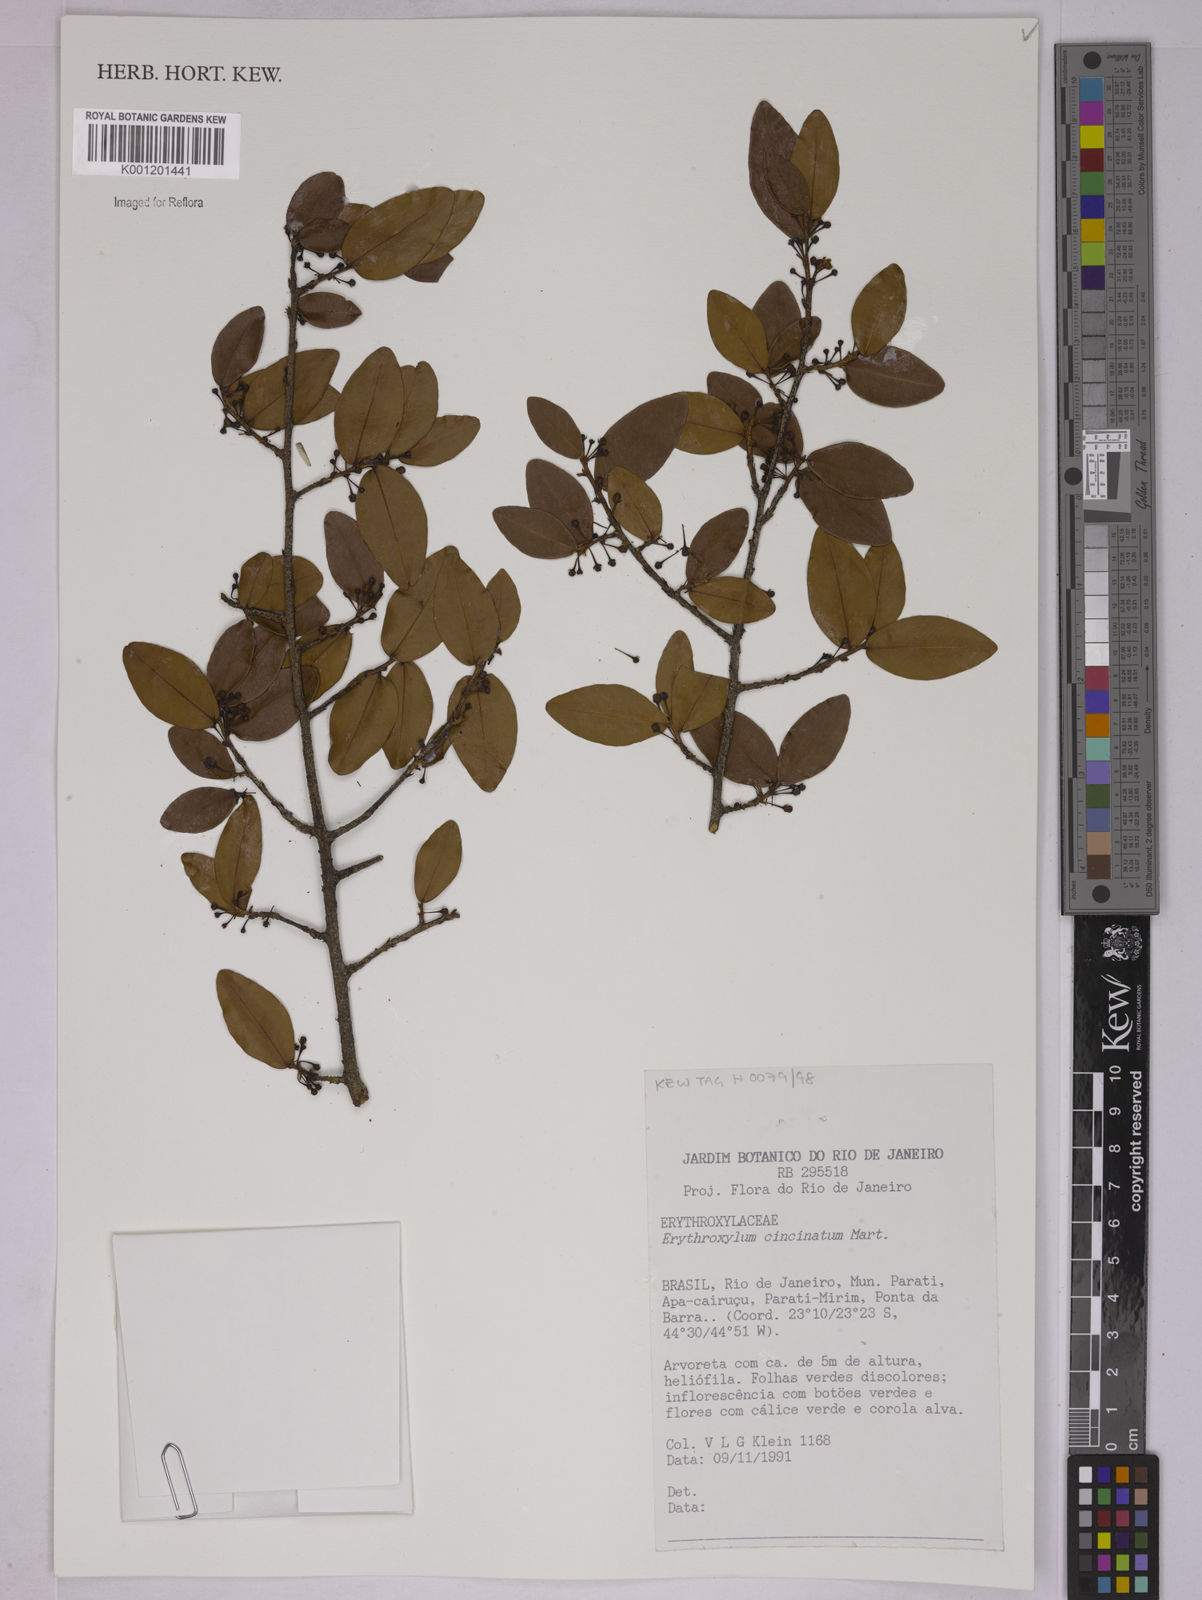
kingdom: Plantae
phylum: Tracheophyta
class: Magnoliopsida
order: Malpighiales
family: Erythroxylaceae
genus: Erythroxylum
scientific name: Erythroxylum cincinnatum
